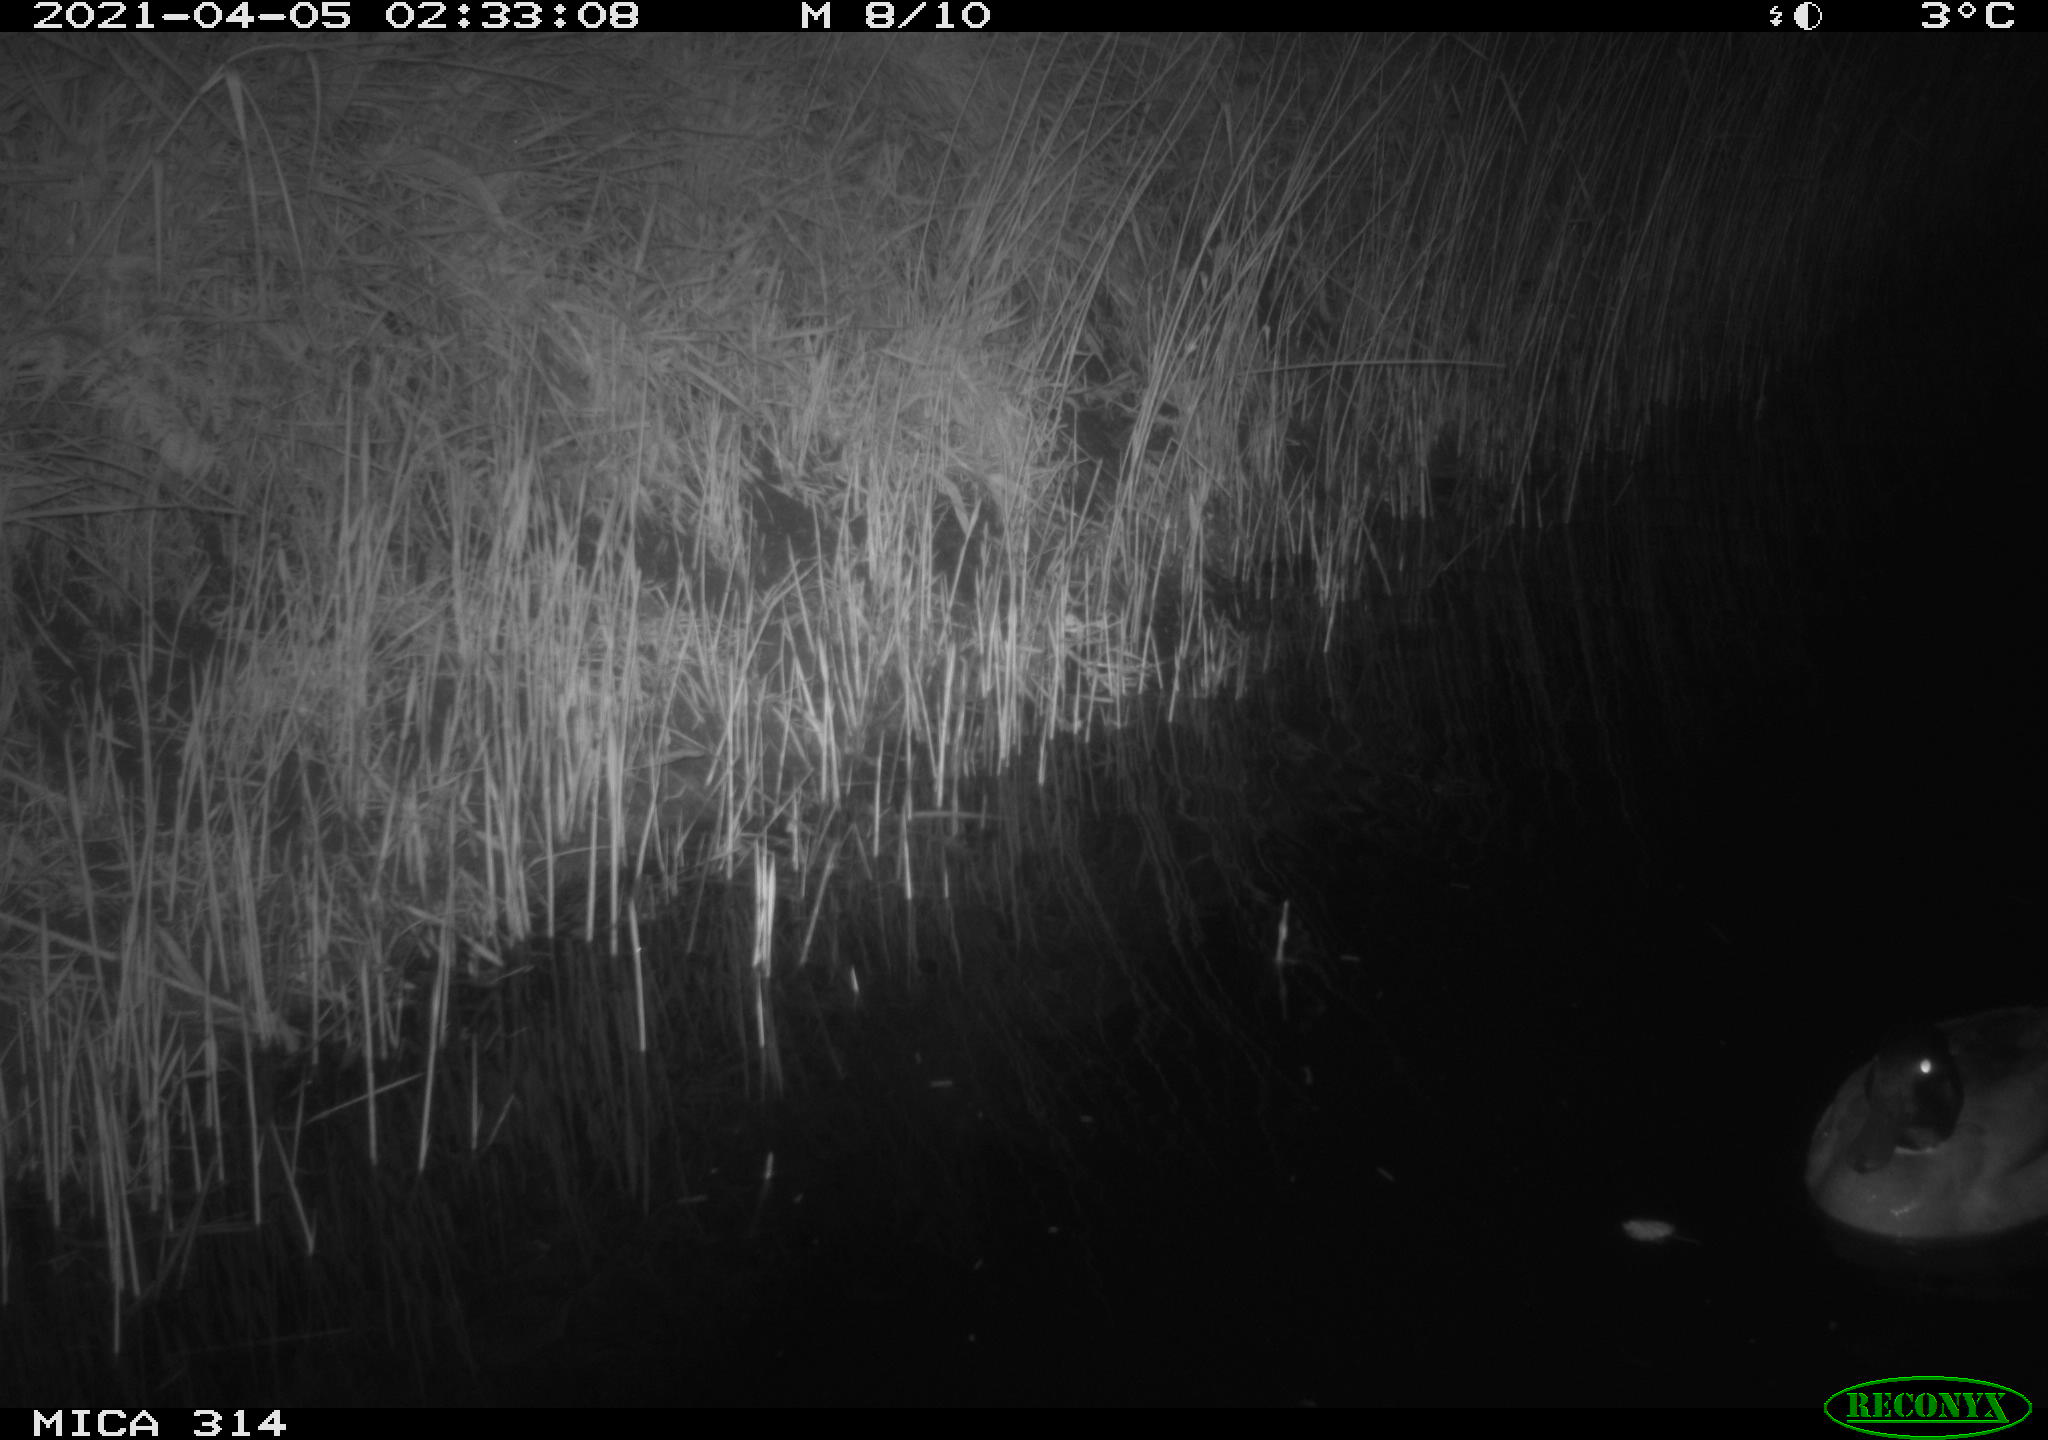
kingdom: Animalia
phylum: Chordata
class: Aves
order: Anseriformes
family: Anatidae
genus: Anas
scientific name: Anas platyrhynchos
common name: Mallard
